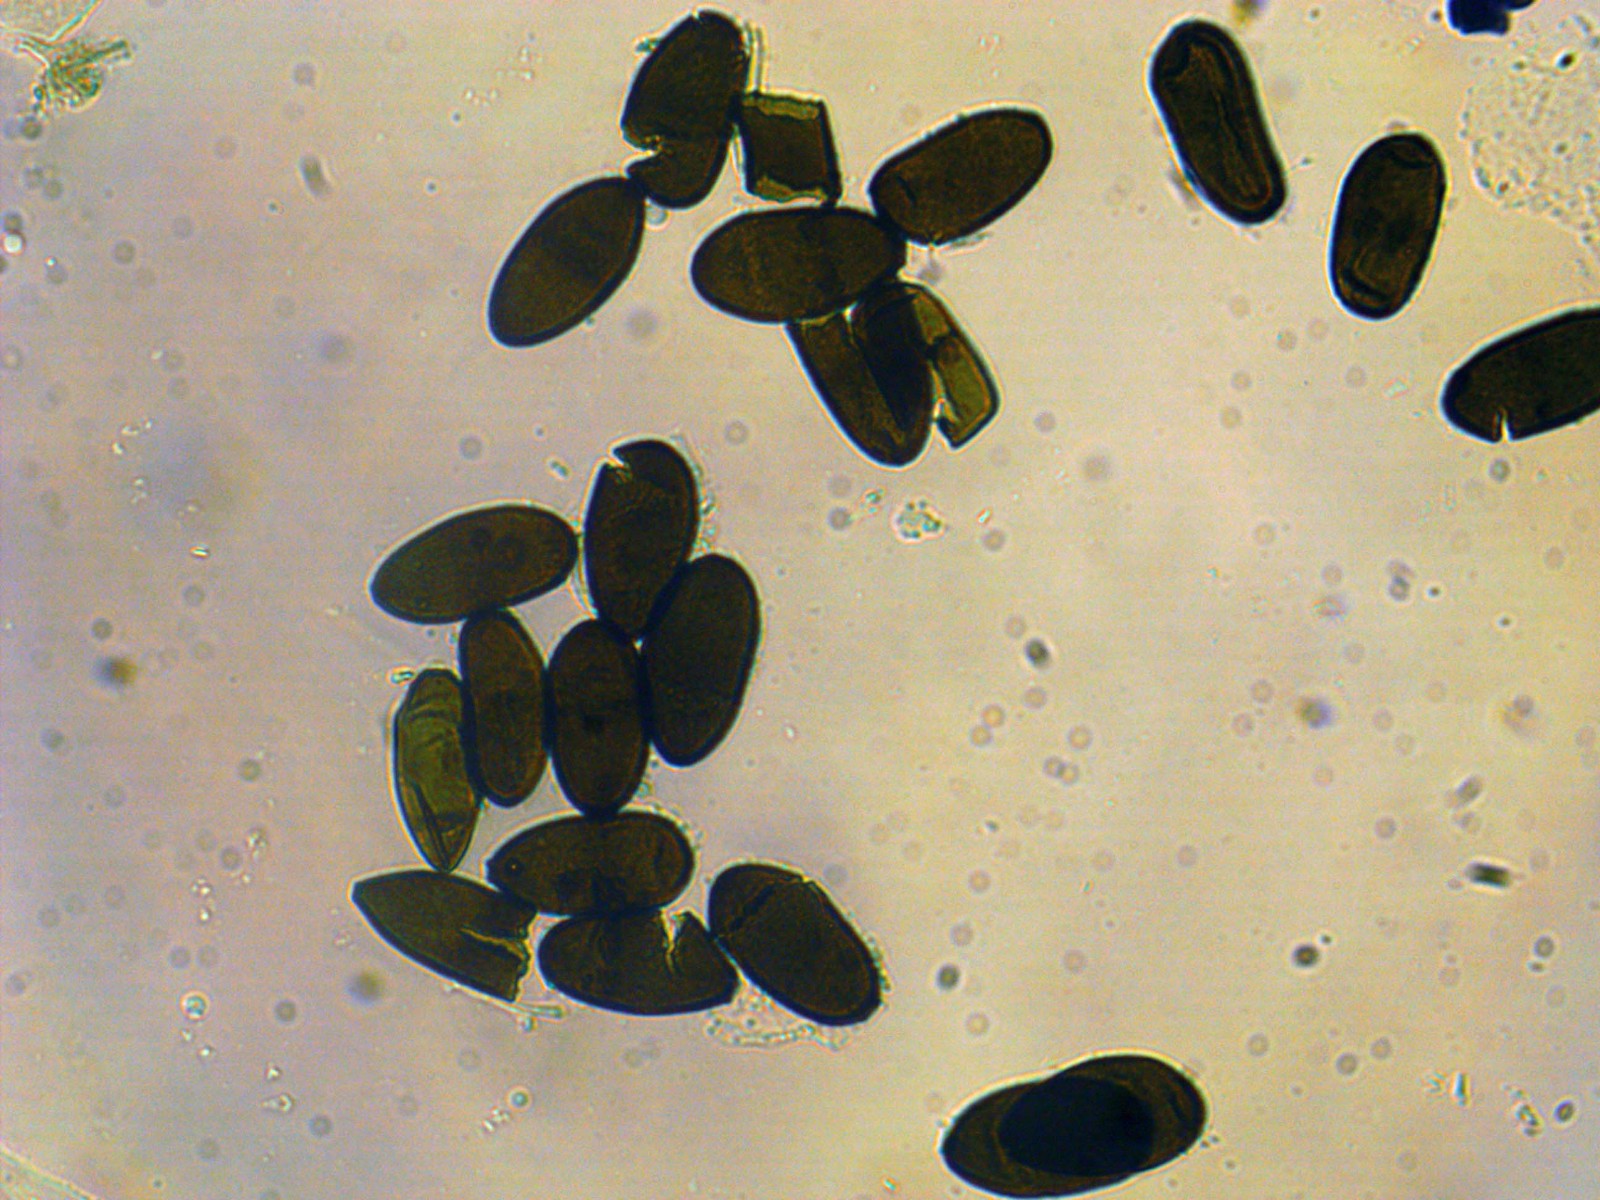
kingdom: Fungi
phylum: Ascomycota
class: Dothideomycetes
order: Botryosphaeriales
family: Botryosphaeriaceae
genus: Sphaeropsis
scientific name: Sphaeropsis sapinea
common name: Sphaeropsis blight
